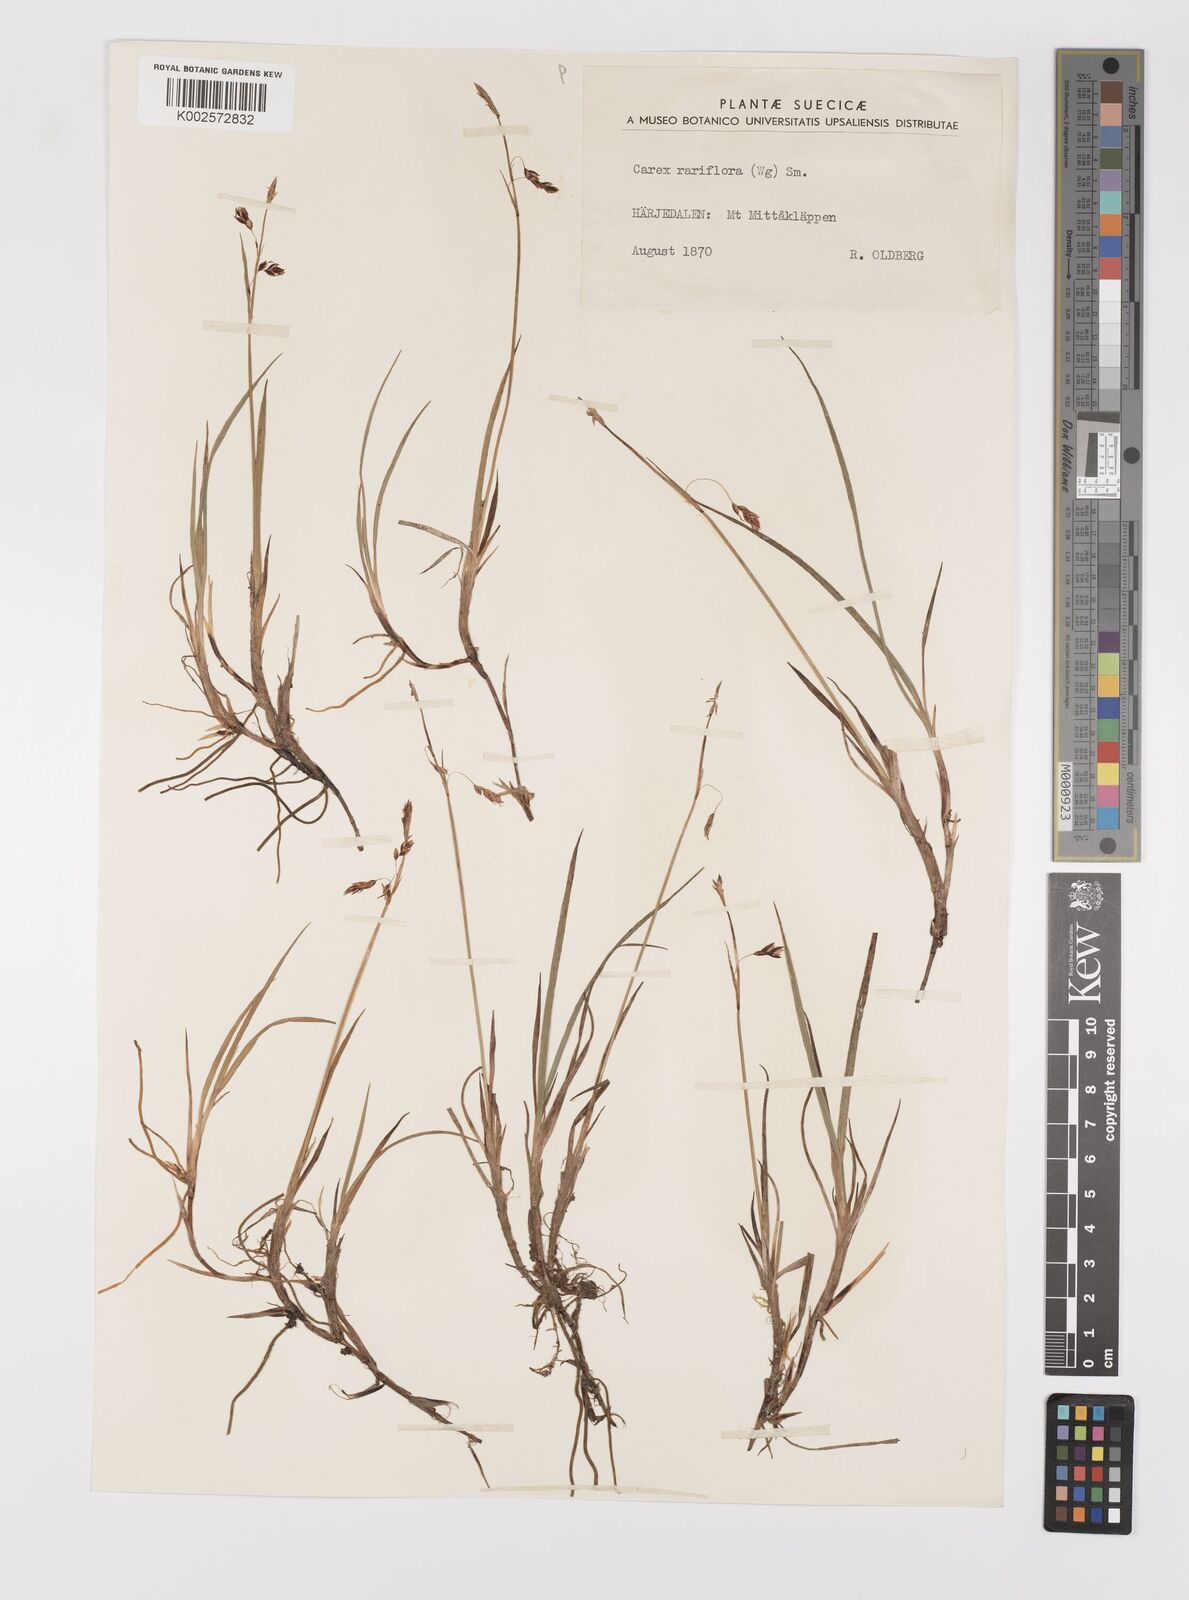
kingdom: Plantae
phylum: Tracheophyta
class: Liliopsida
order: Poales
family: Cyperaceae
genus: Carex
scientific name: Carex rariflora
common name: Loose-flowered alpine sedge
